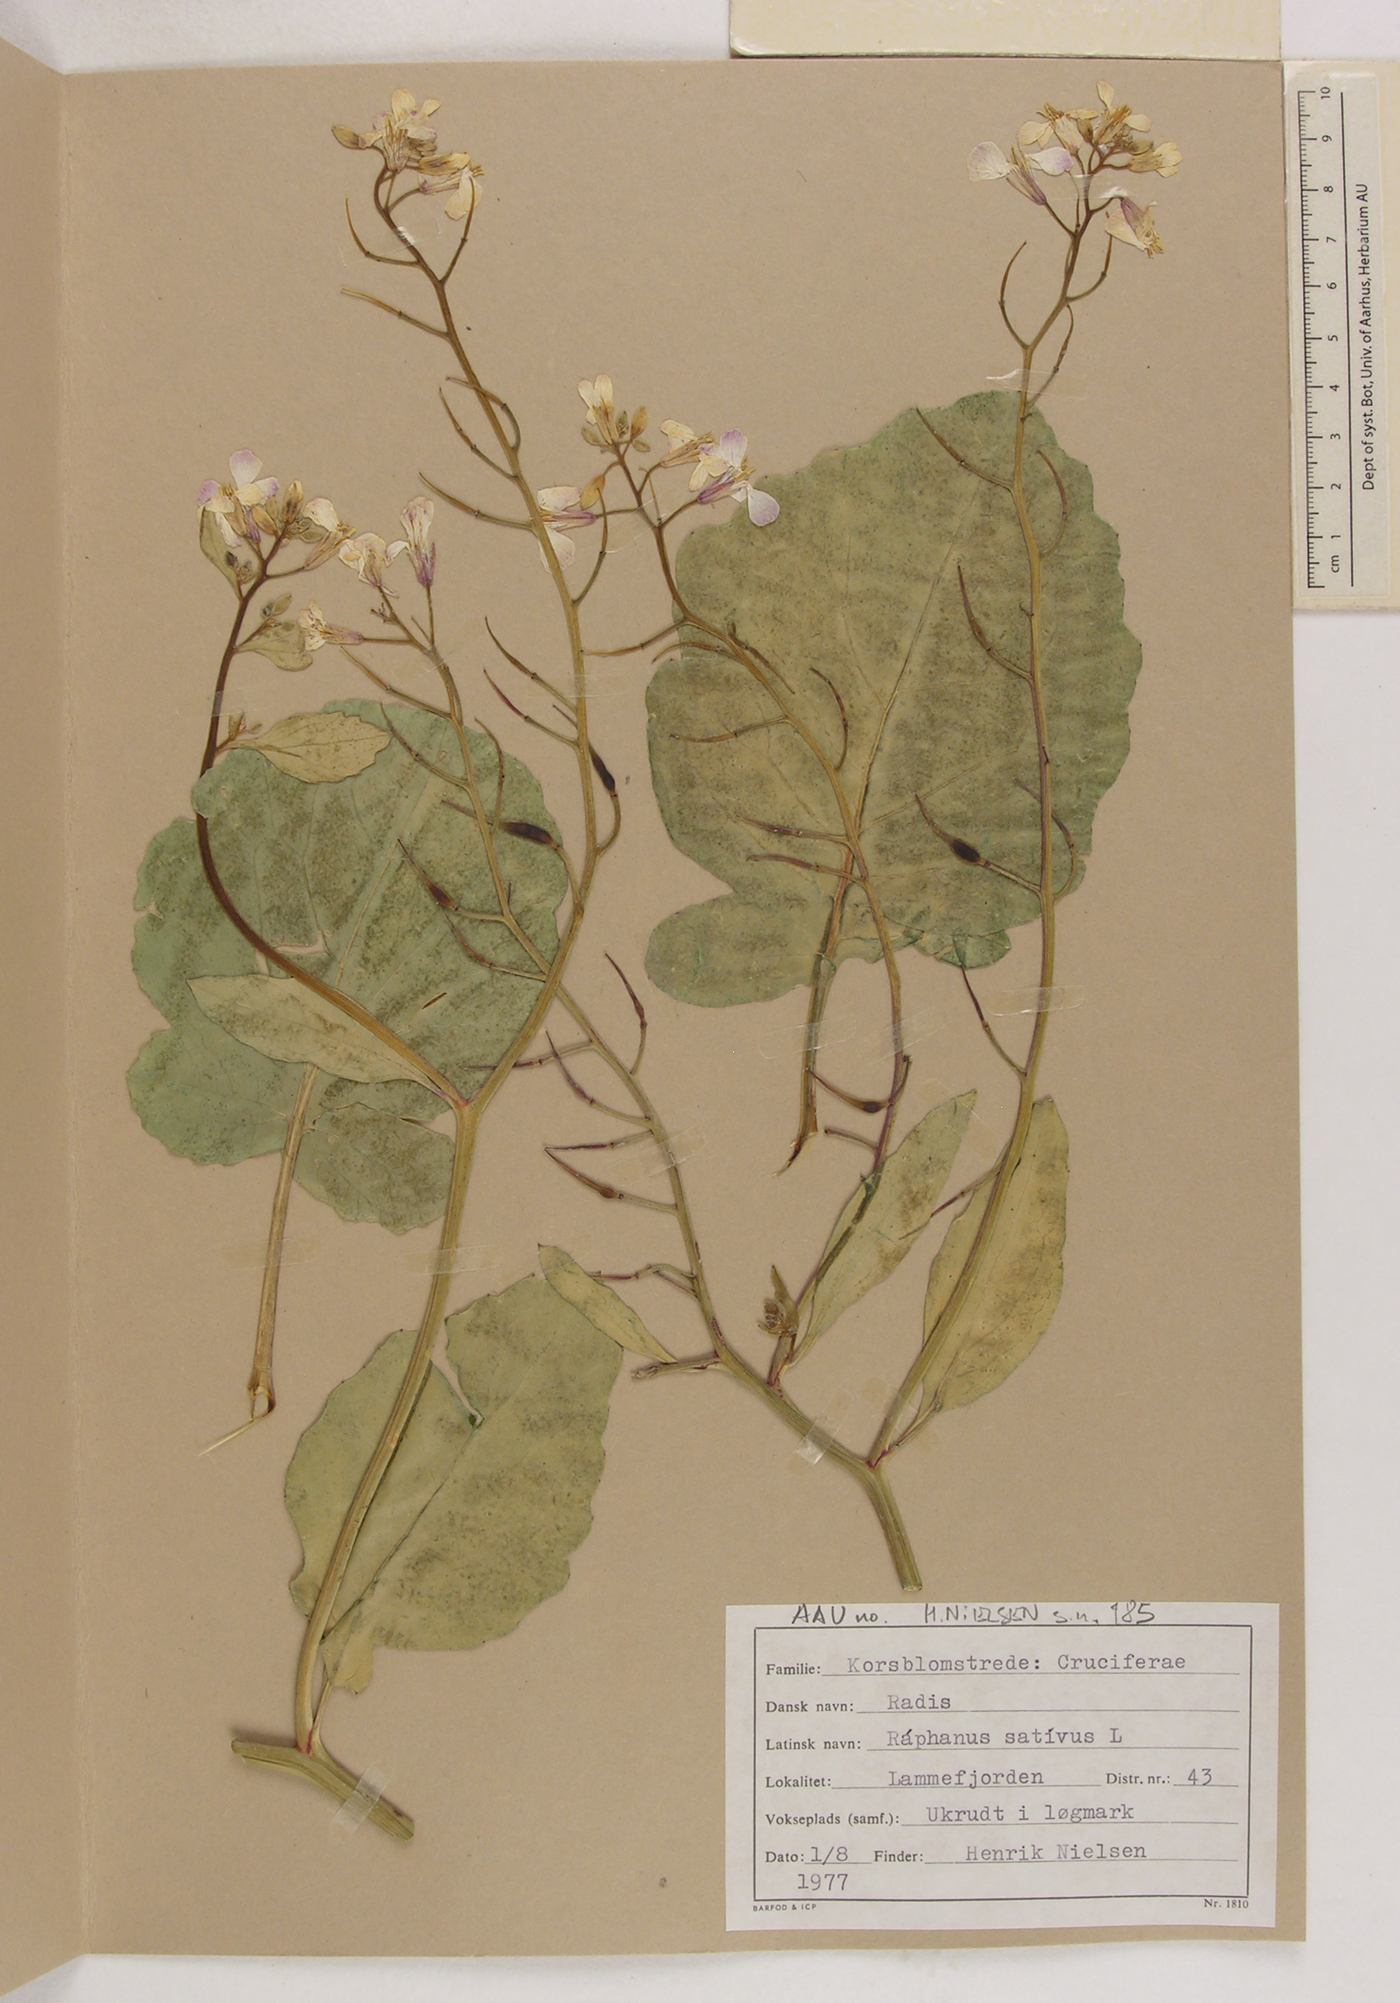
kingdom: Plantae
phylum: Tracheophyta
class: Magnoliopsida
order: Brassicales
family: Brassicaceae
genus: Raphanus
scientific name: Raphanus sativus
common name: Cultivated radish
